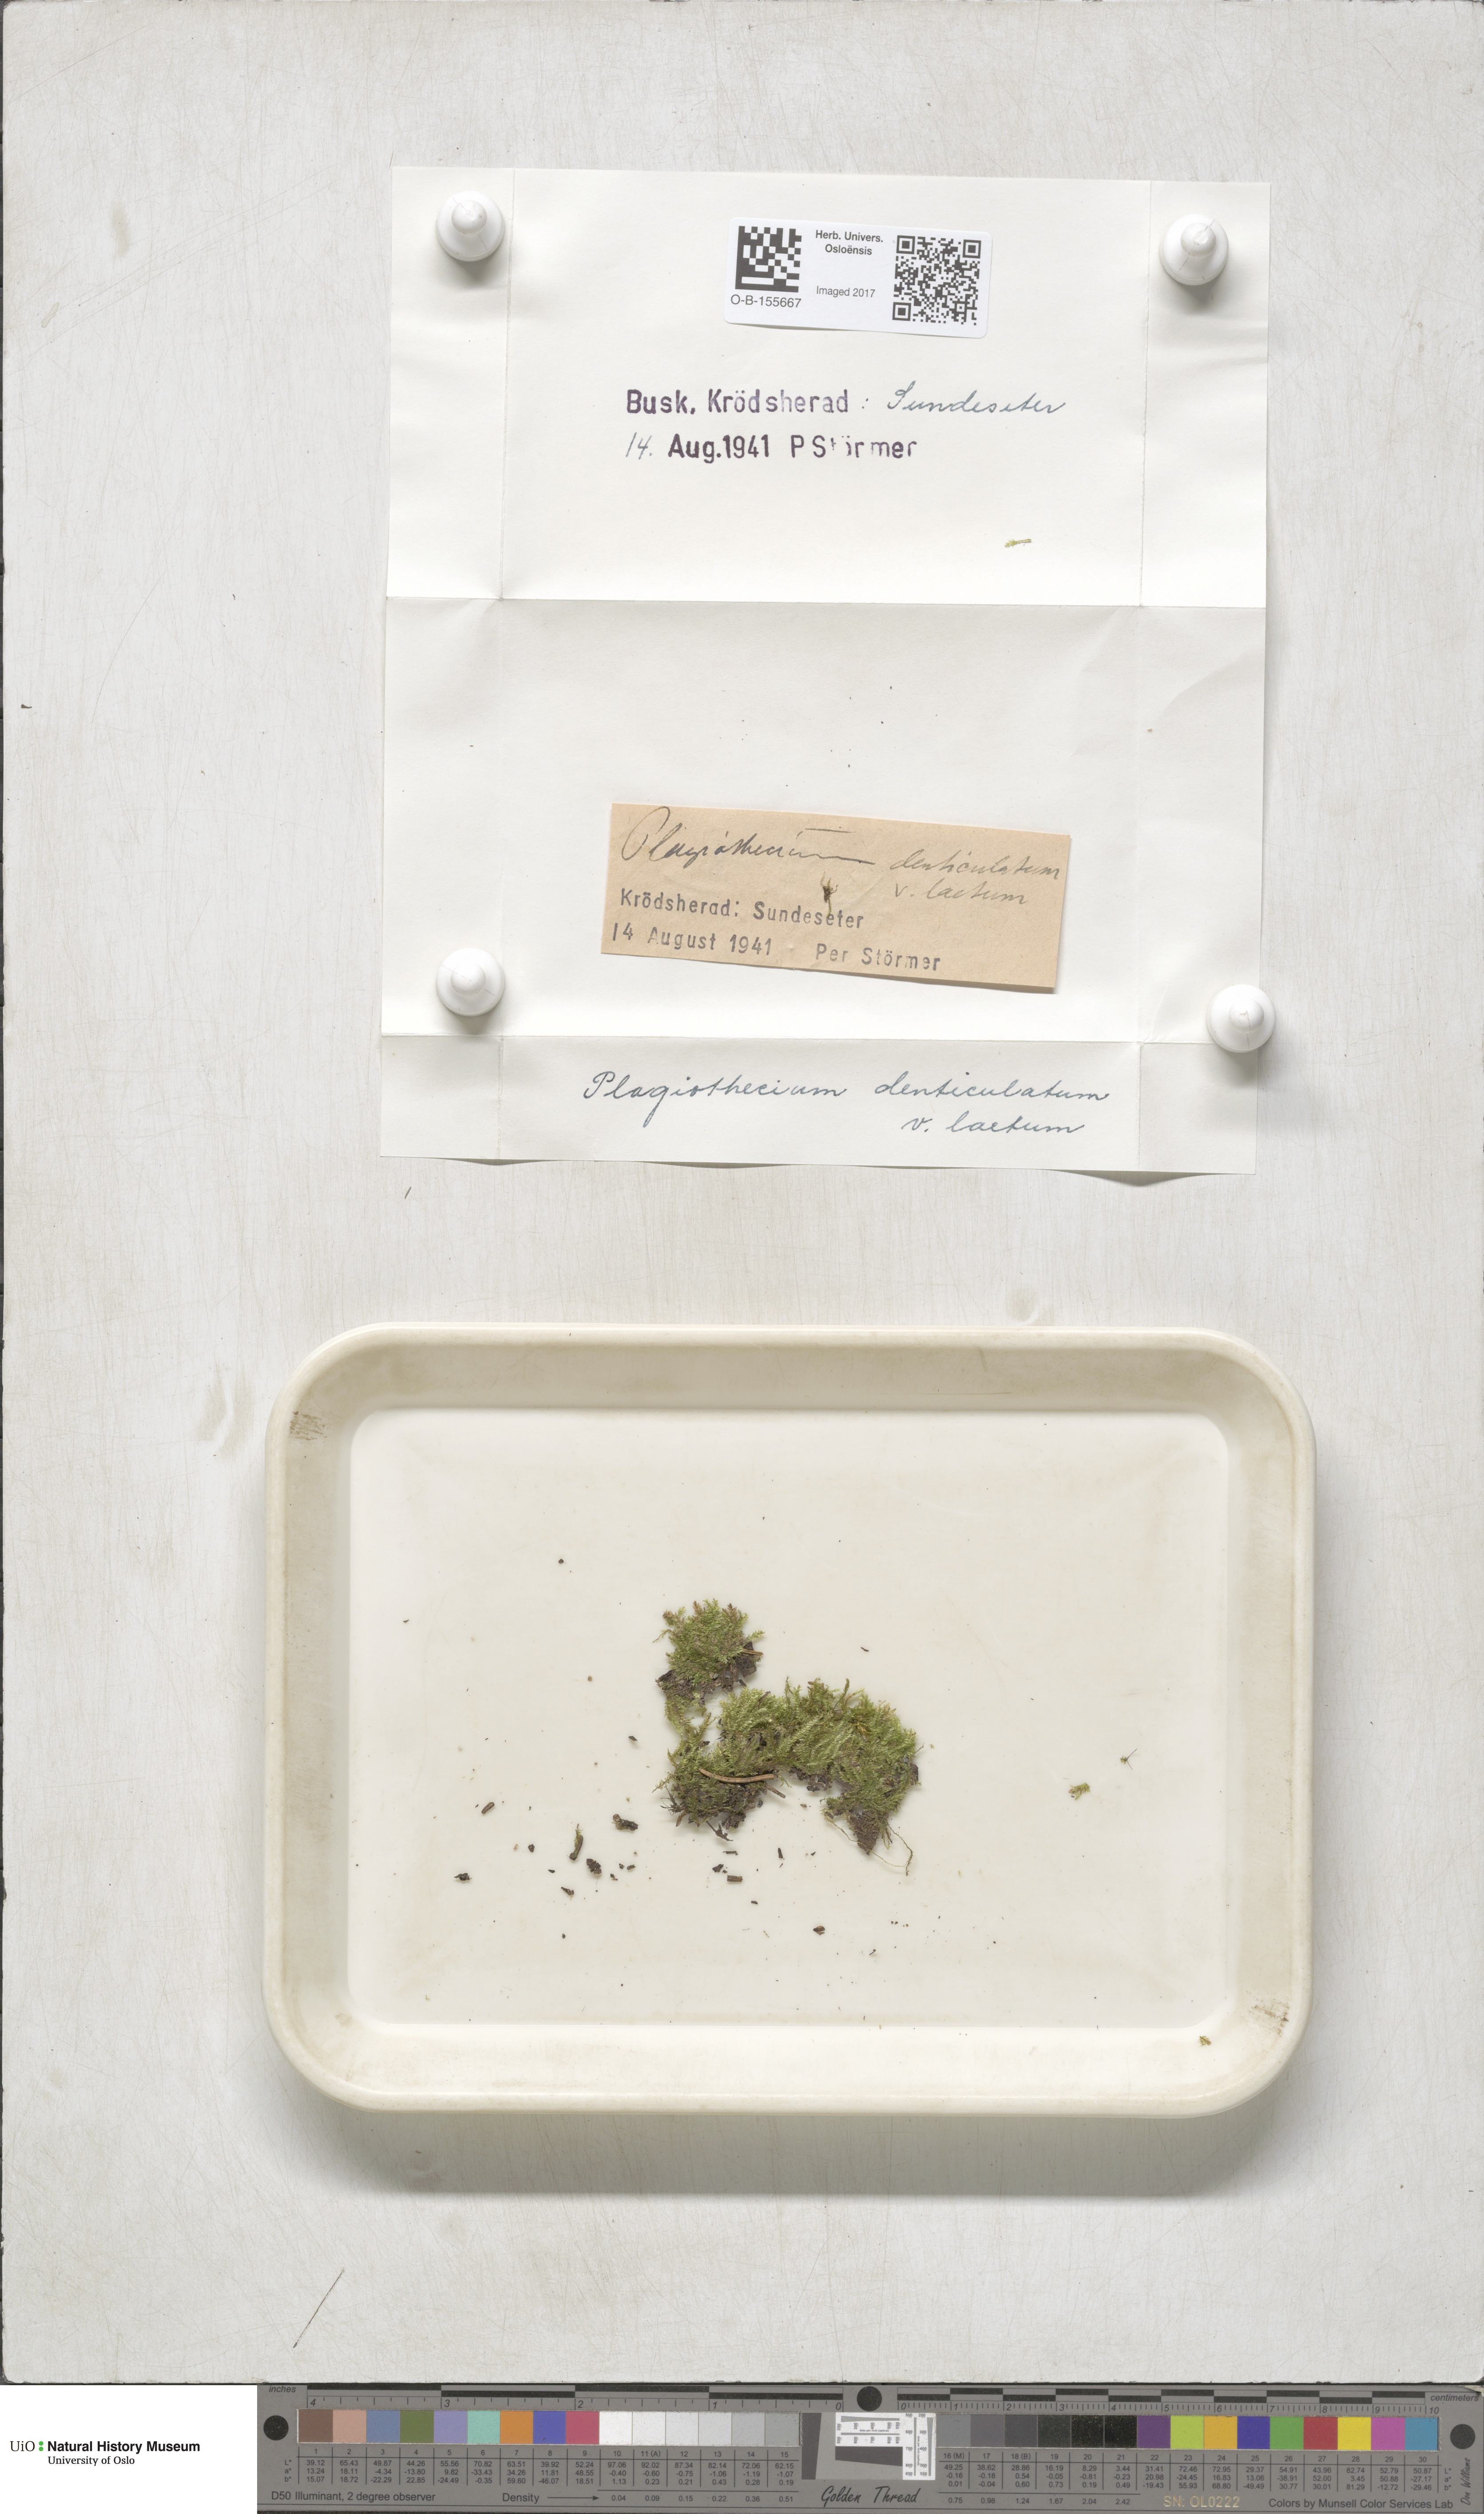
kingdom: Plantae
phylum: Bryophyta
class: Bryopsida
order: Hypnales
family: Plagiotheciaceae
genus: Plagiothecium
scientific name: Plagiothecium laetum
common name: Bright silk moss
